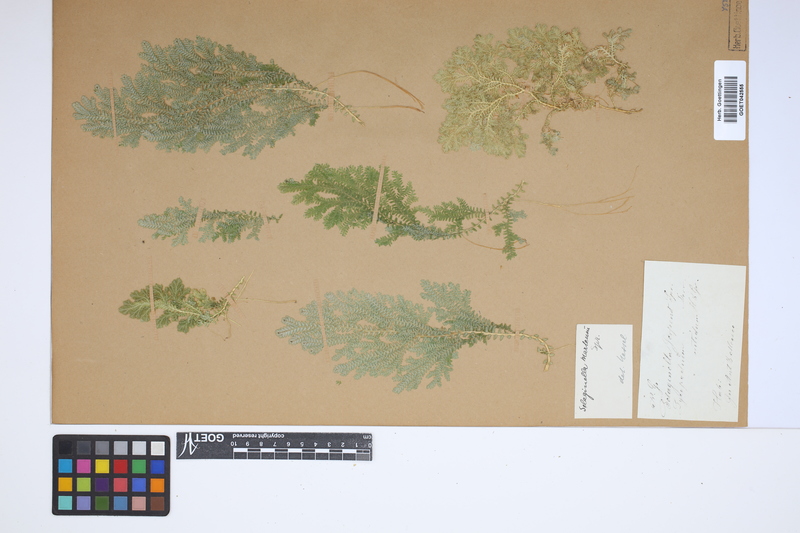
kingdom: Plantae
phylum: Tracheophyta
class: Lycopodiopsida
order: Selaginellales
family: Selaginellaceae
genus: Selaginella
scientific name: Selaginella martensii
